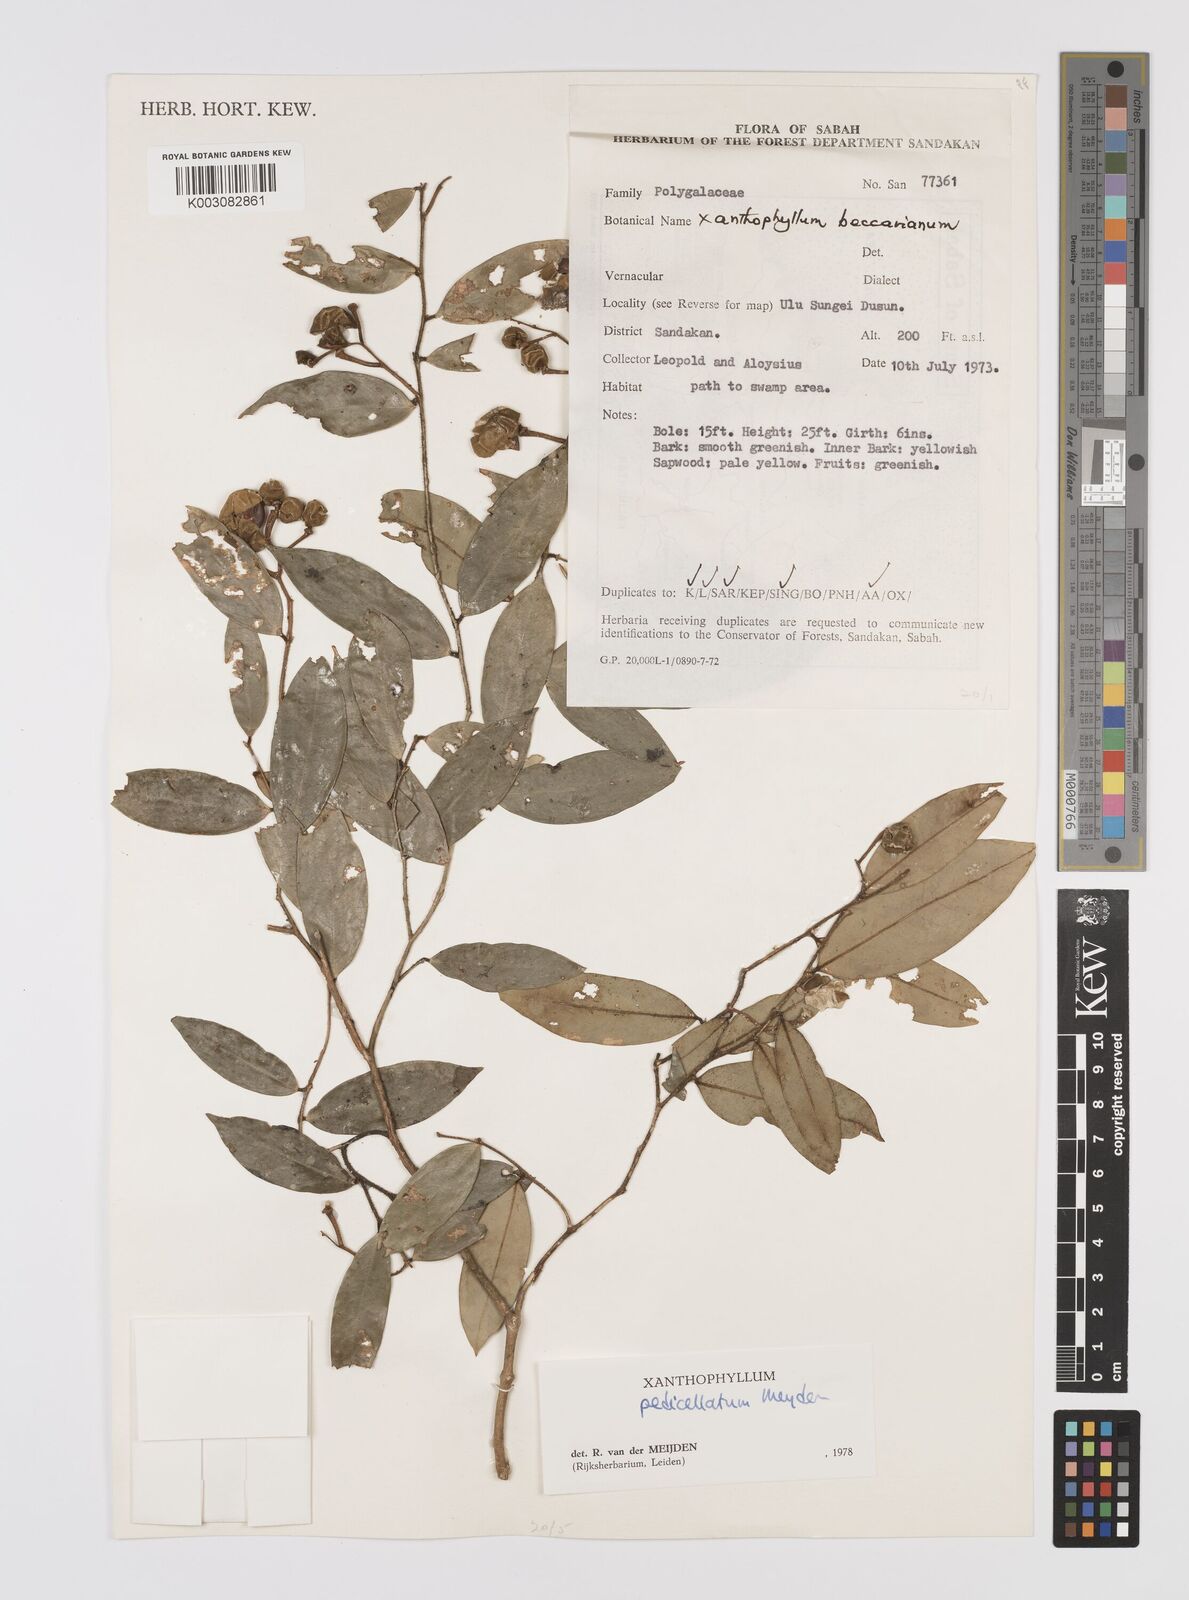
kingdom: Plantae
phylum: Tracheophyta
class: Magnoliopsida
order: Fabales
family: Polygalaceae
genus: Xanthophyllum
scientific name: Xanthophyllum pedicellatum
